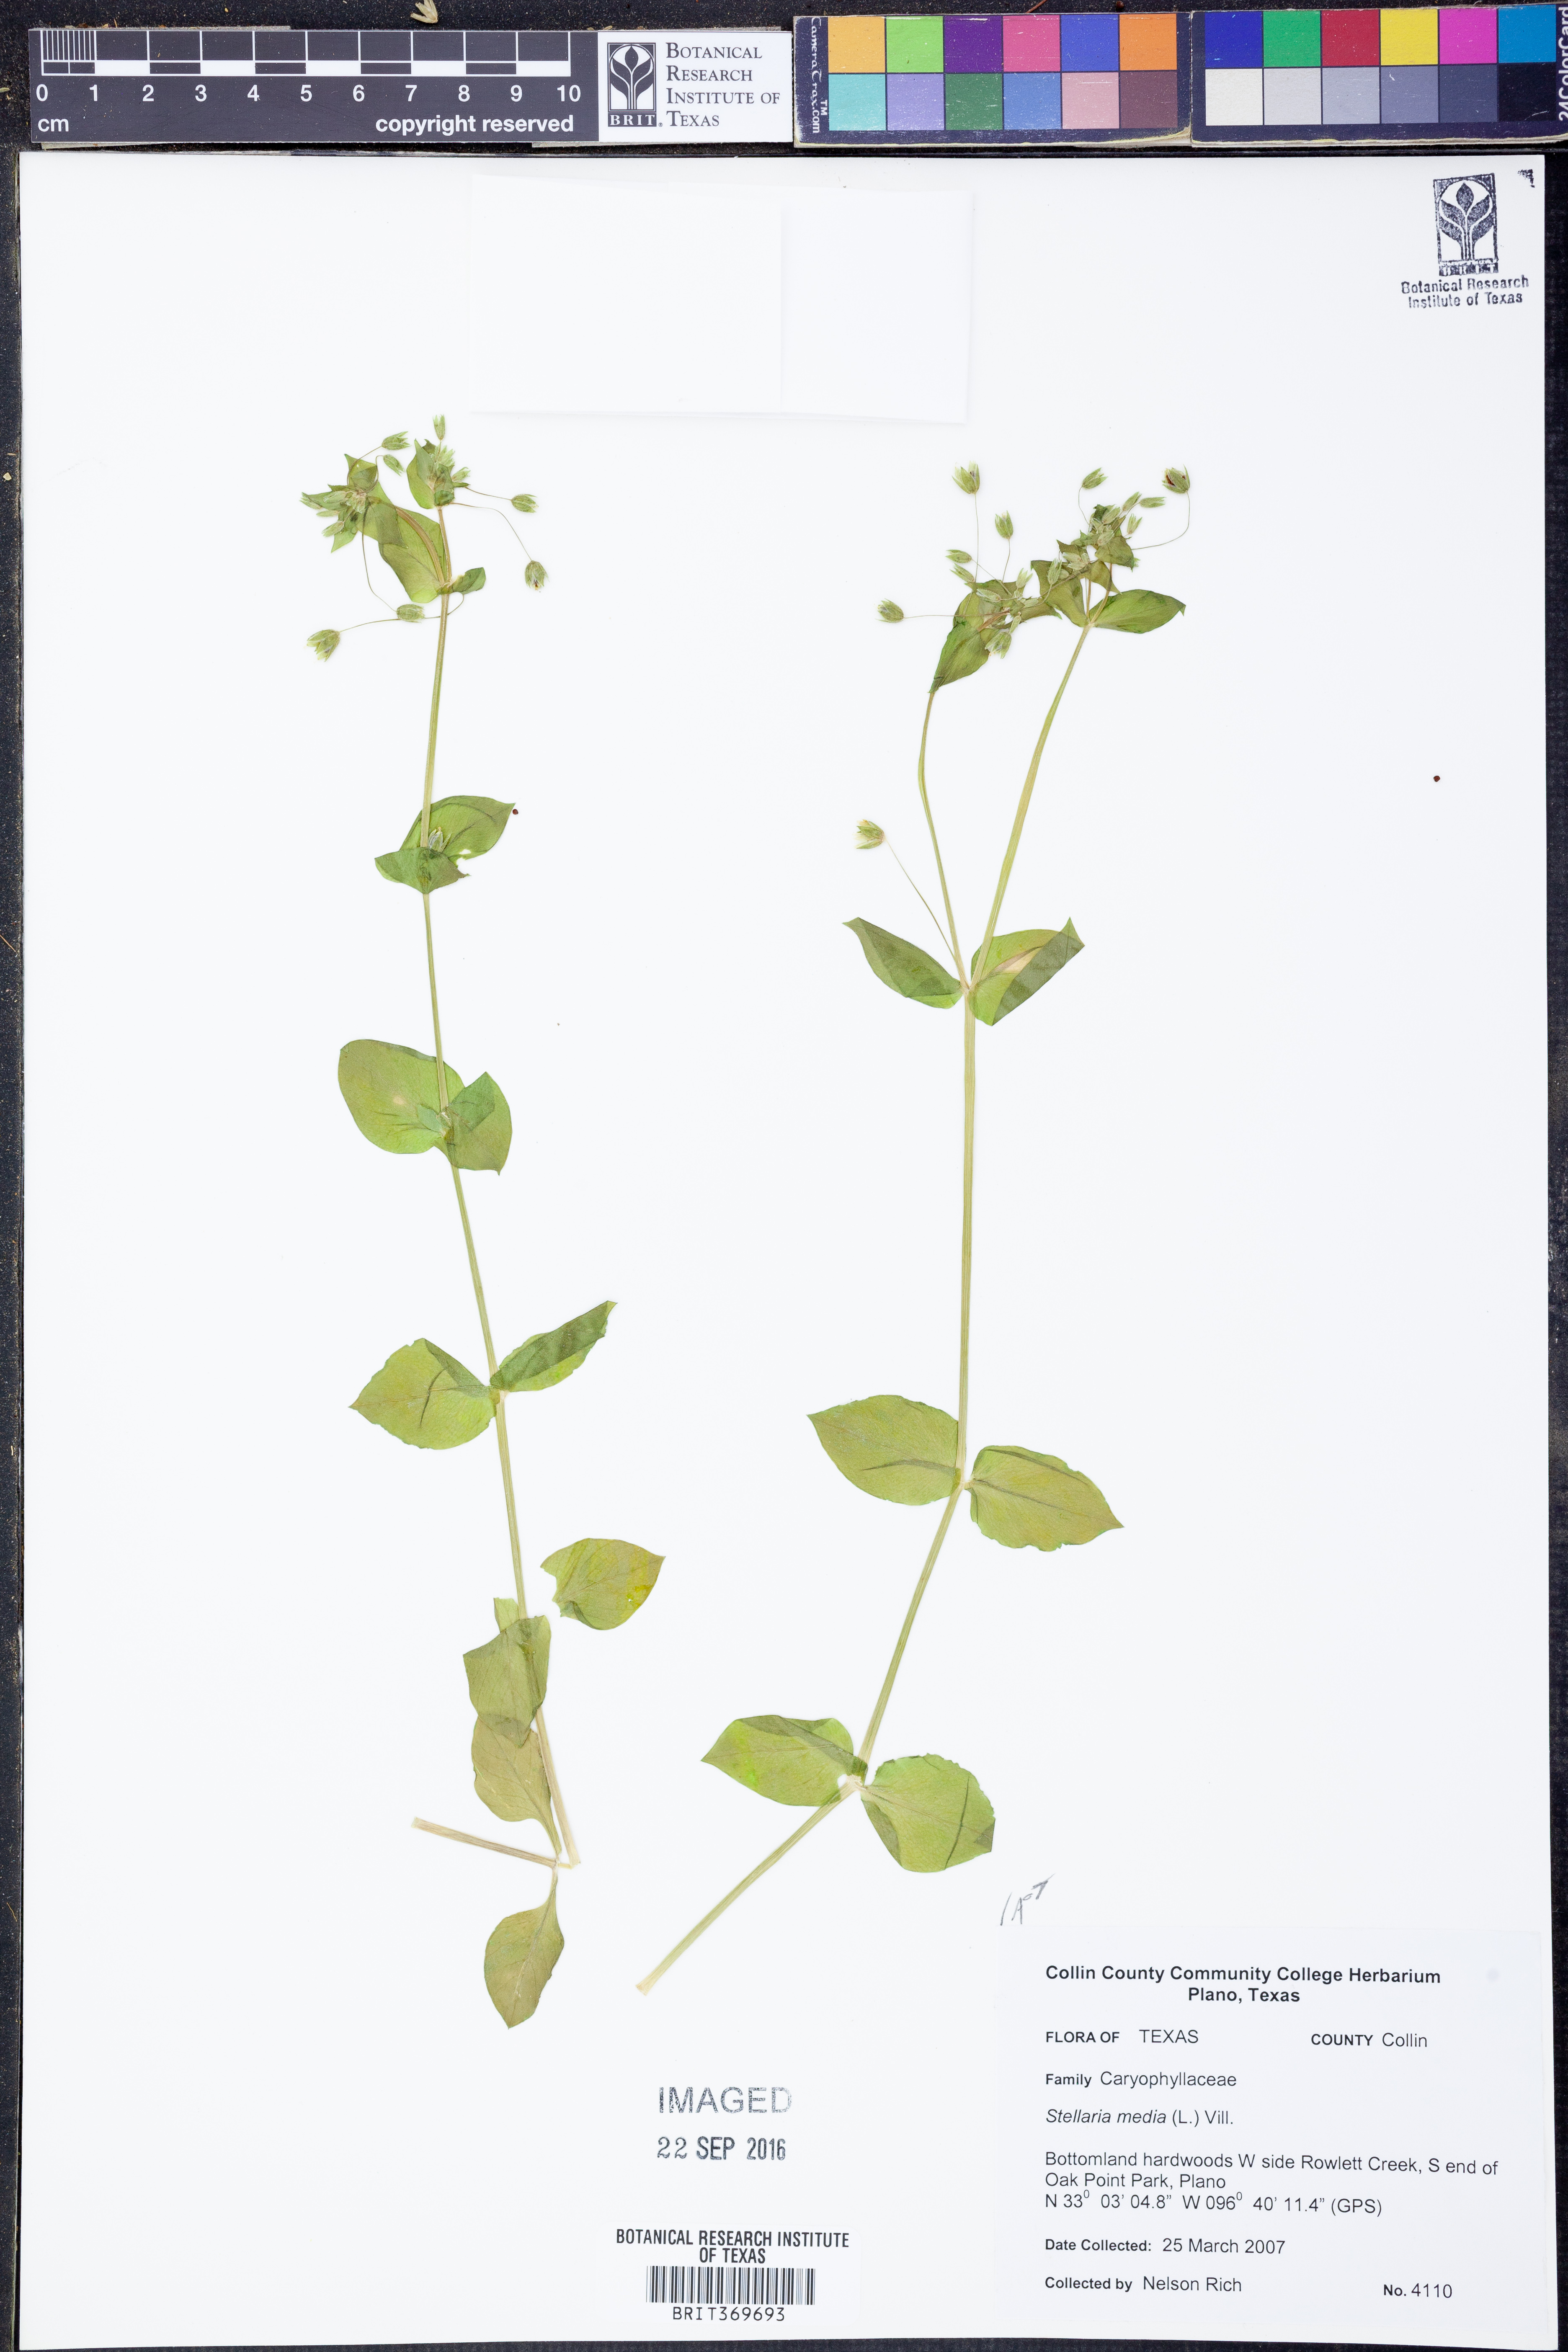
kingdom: Plantae
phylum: Tracheophyta
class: Magnoliopsida
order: Caryophyllales
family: Caryophyllaceae
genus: Stellaria
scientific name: Stellaria media
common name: Common chickweed
